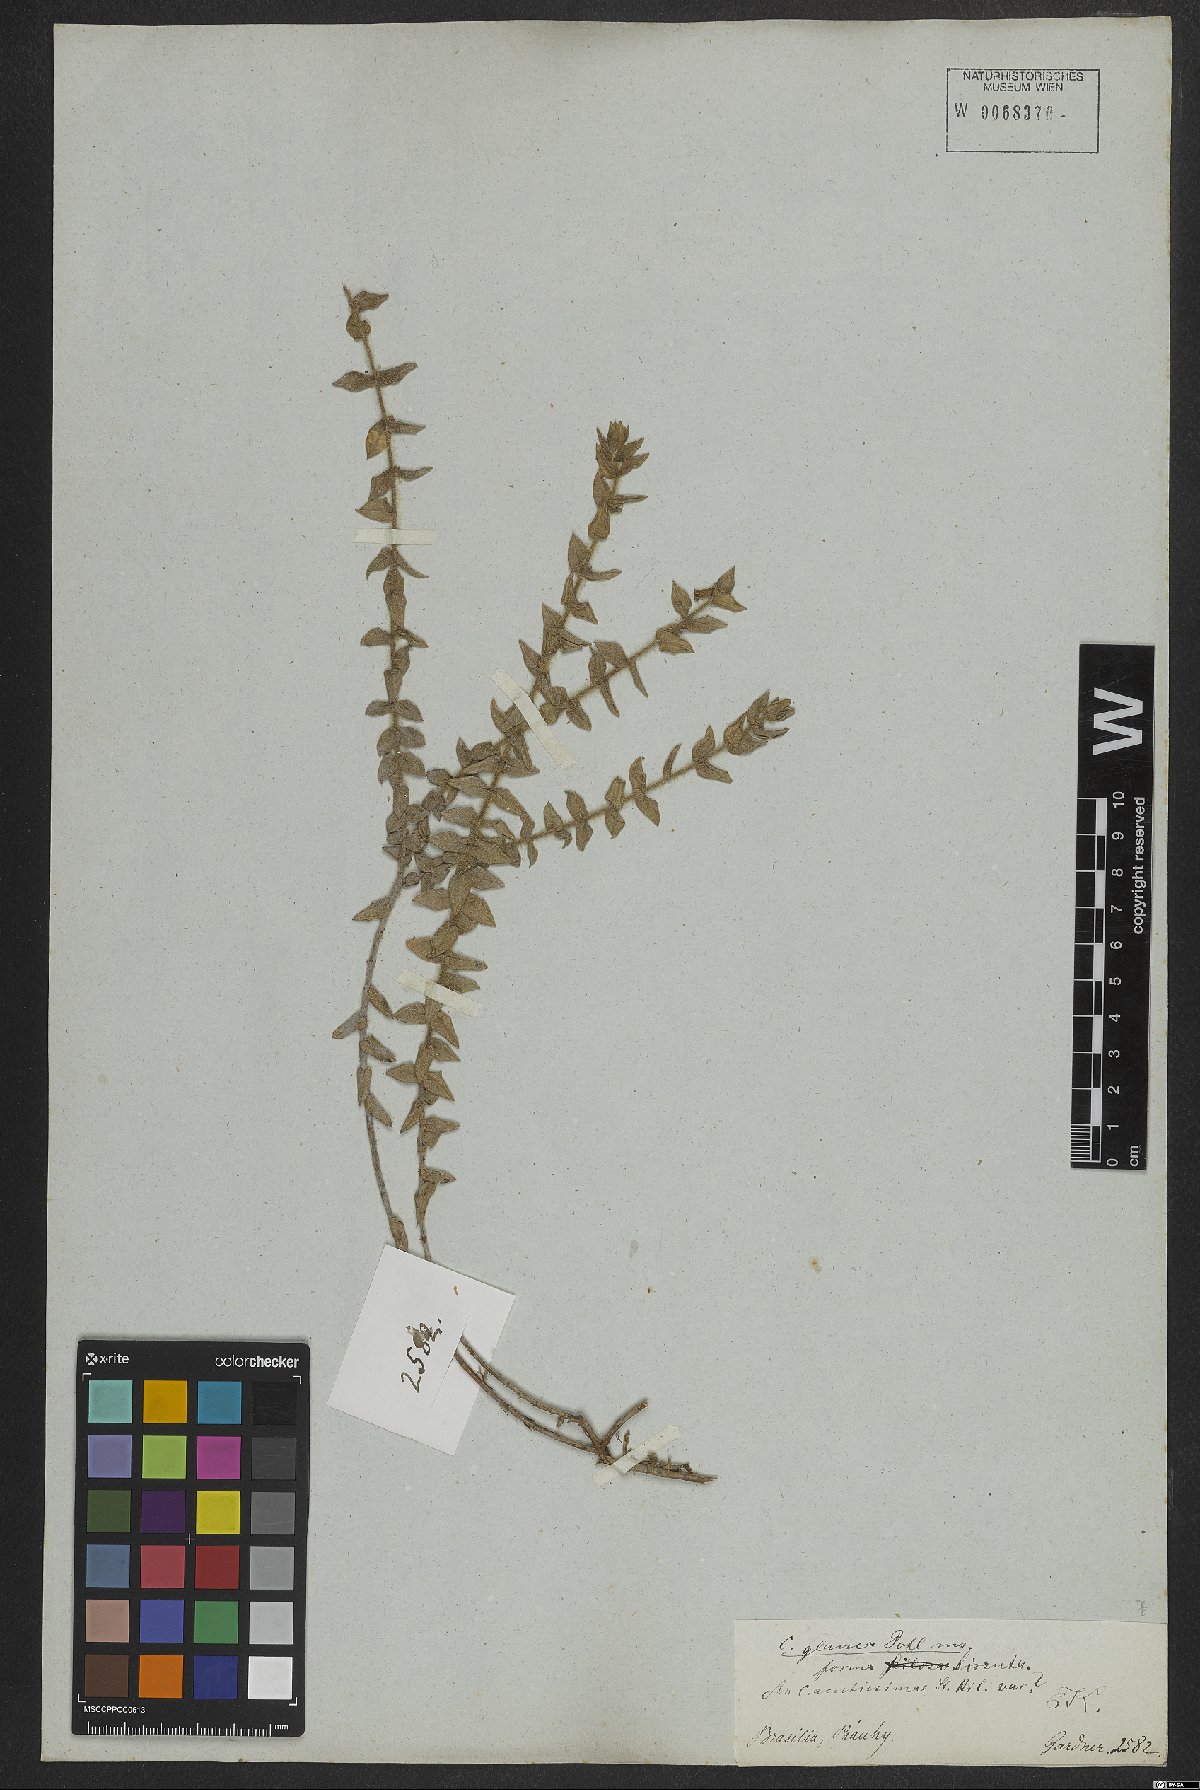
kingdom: Plantae
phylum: Tracheophyta
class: Magnoliopsida
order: Myrtales
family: Lythraceae
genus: Cuphea
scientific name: Cuphea glauca
